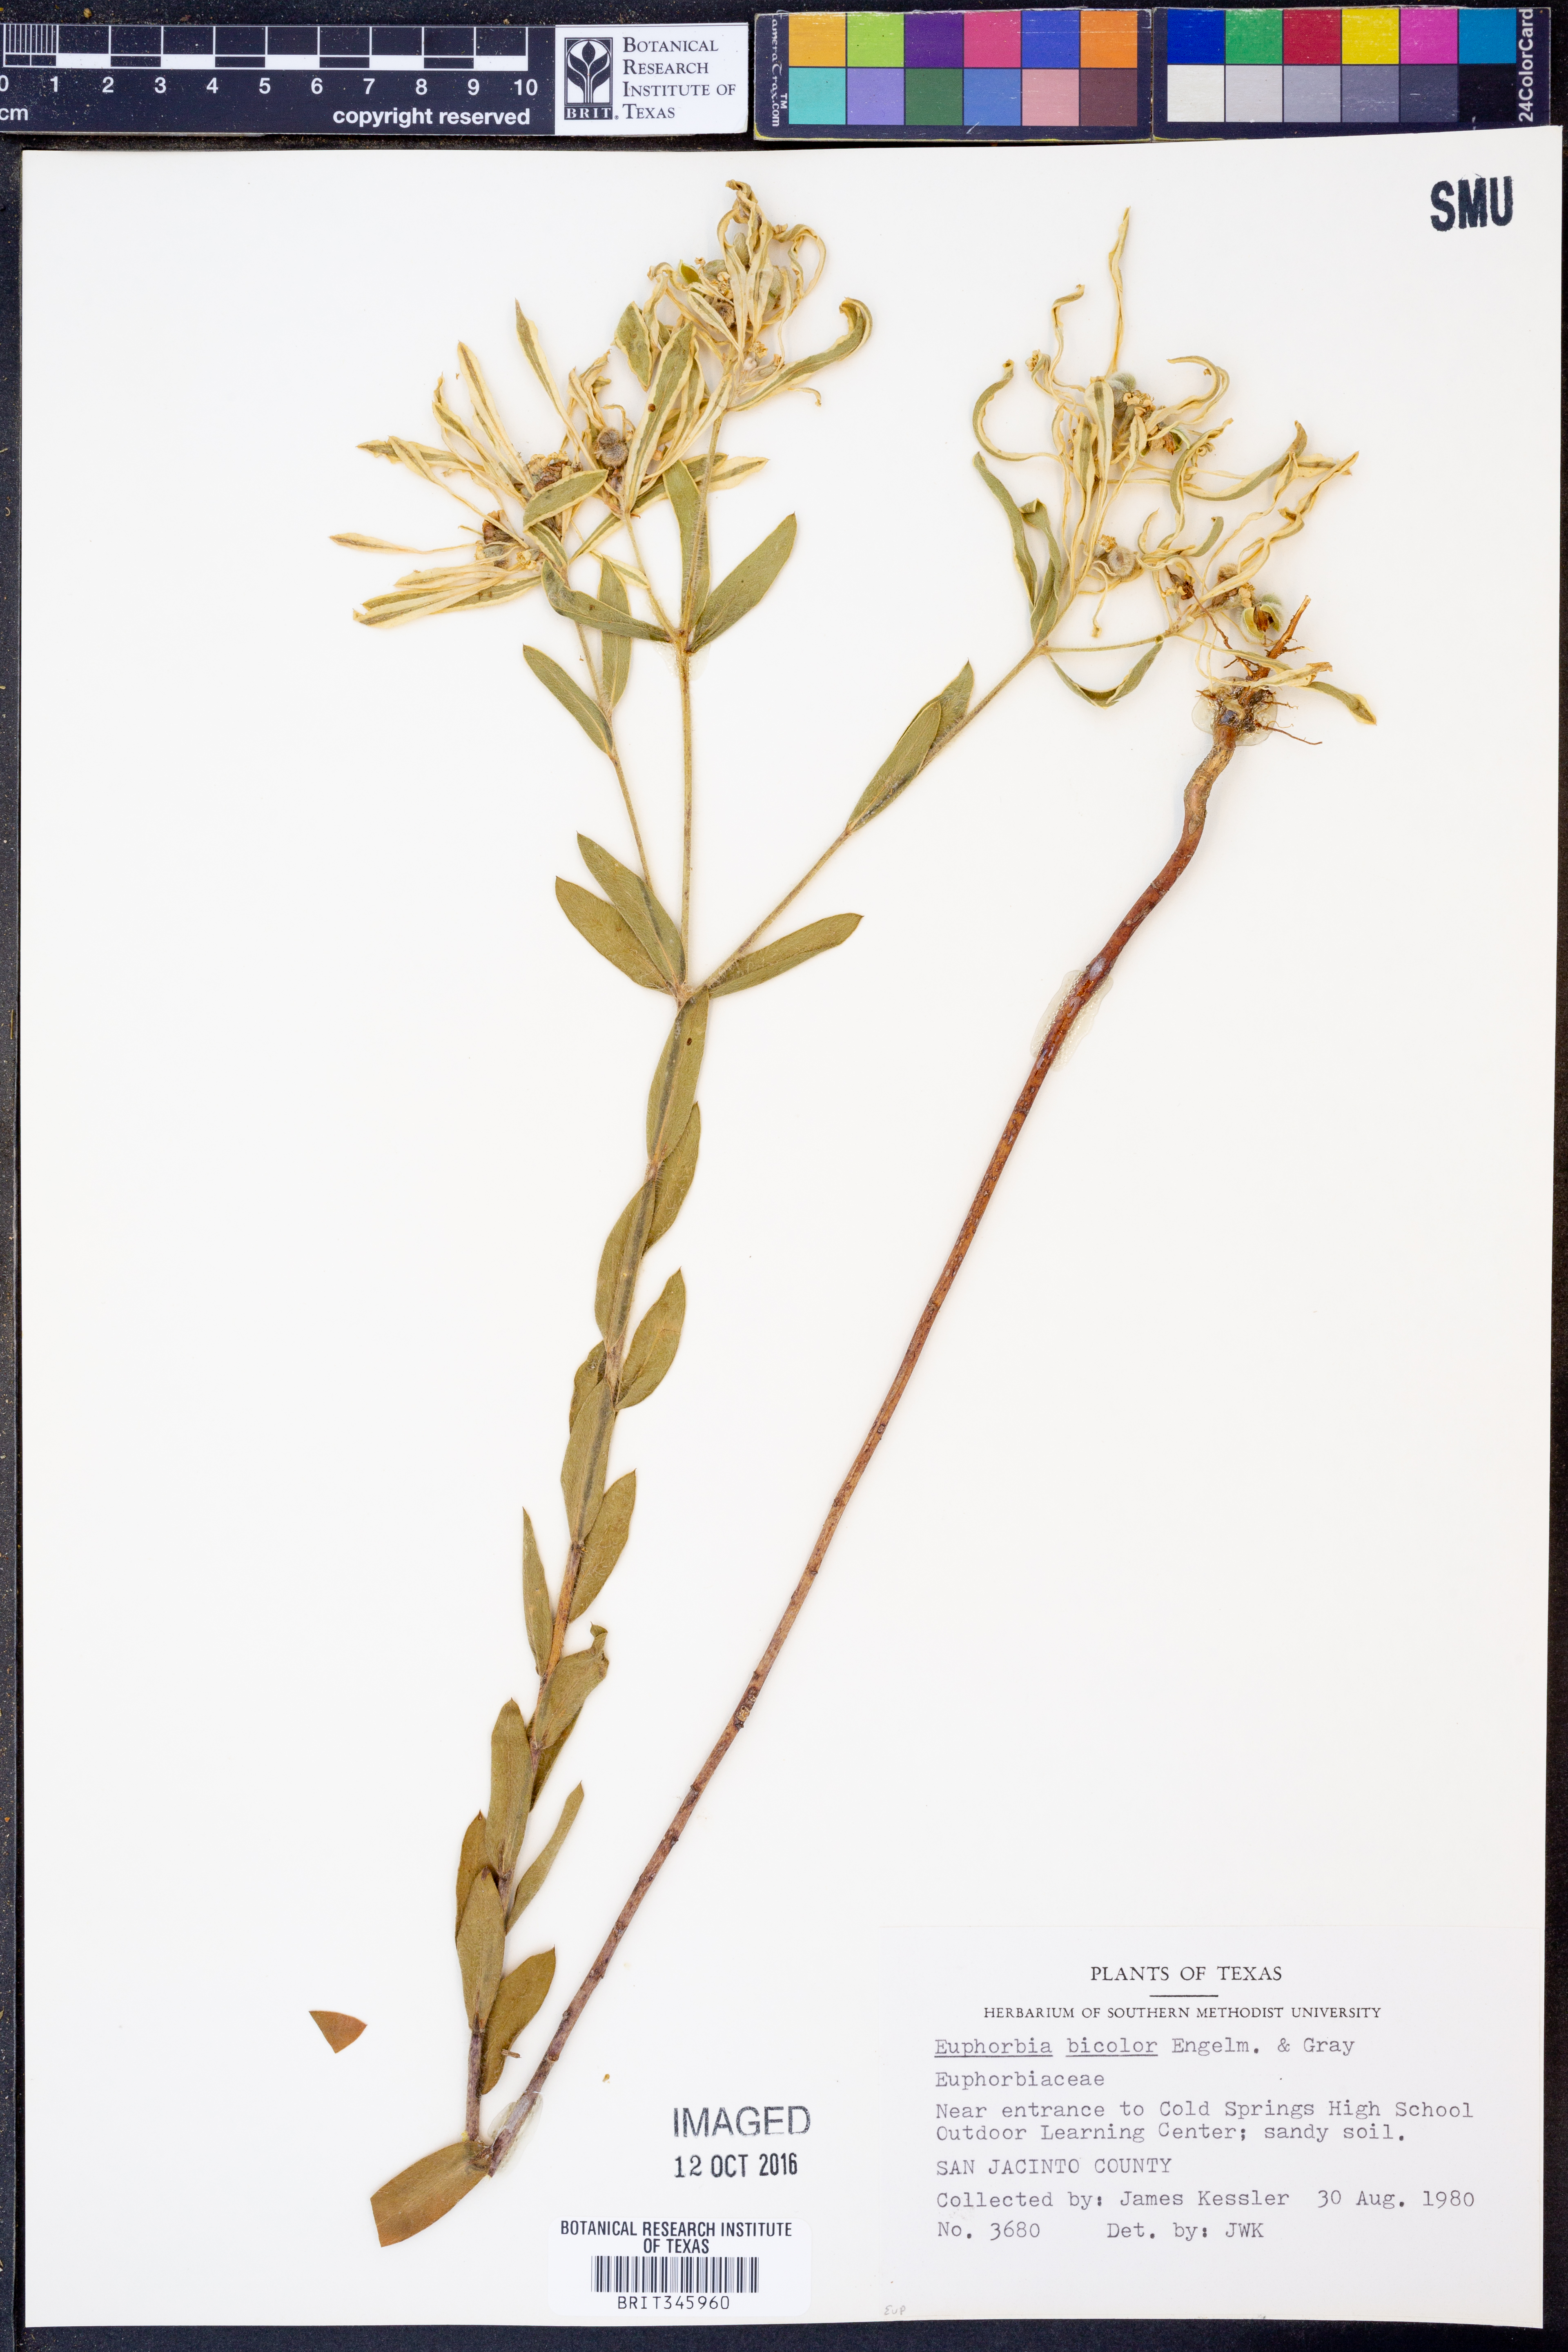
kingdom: Plantae
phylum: Tracheophyta
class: Magnoliopsida
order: Malpighiales
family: Euphorbiaceae
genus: Euphorbia
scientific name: Euphorbia bicolor
